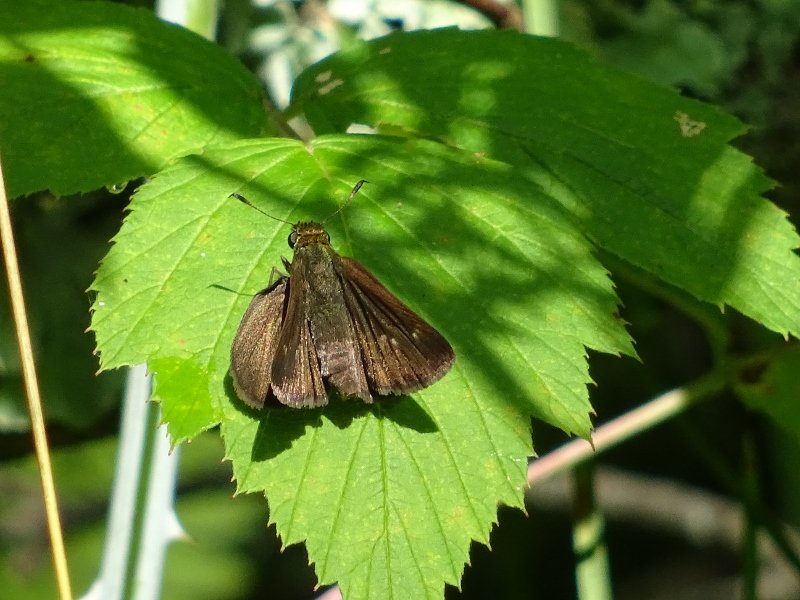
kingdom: Animalia
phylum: Arthropoda
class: Insecta
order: Lepidoptera
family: Hesperiidae
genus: Euphyes
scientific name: Euphyes vestris
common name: Dun Skipper
